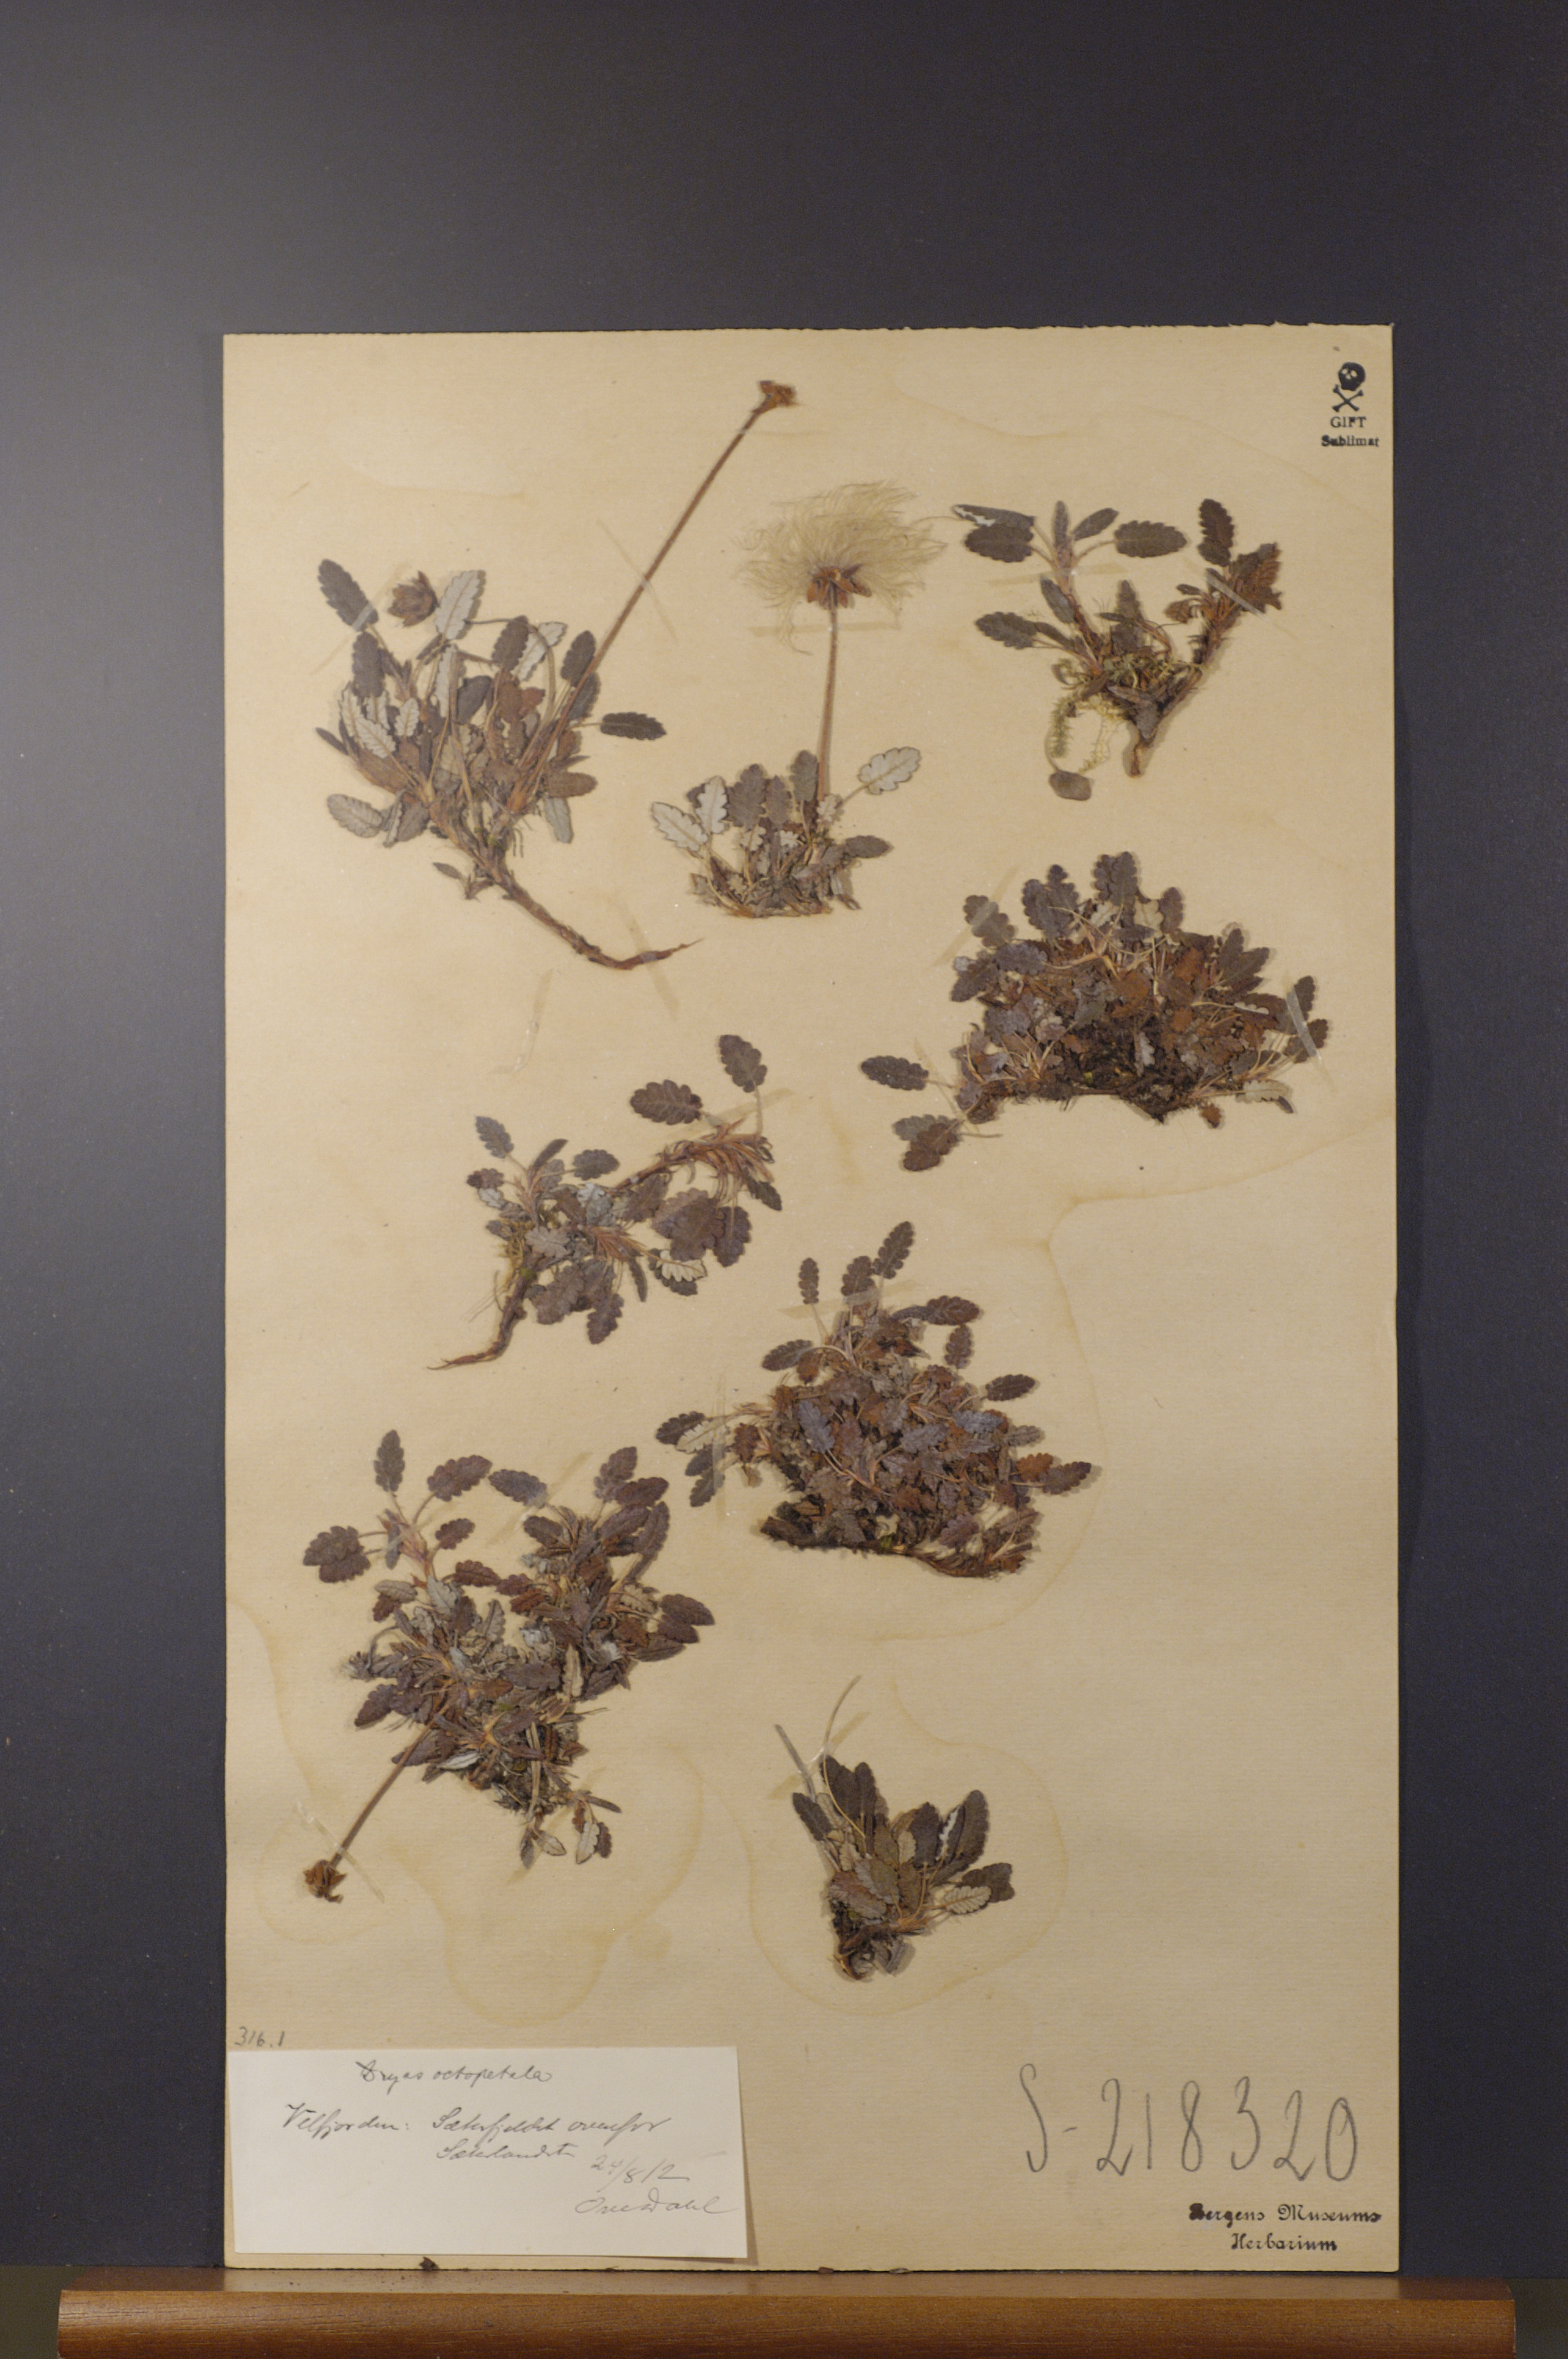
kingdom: Plantae
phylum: Tracheophyta
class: Magnoliopsida
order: Rosales
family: Rosaceae
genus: Dryas
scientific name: Dryas octopetala
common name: Eight-petal mountain-avens
